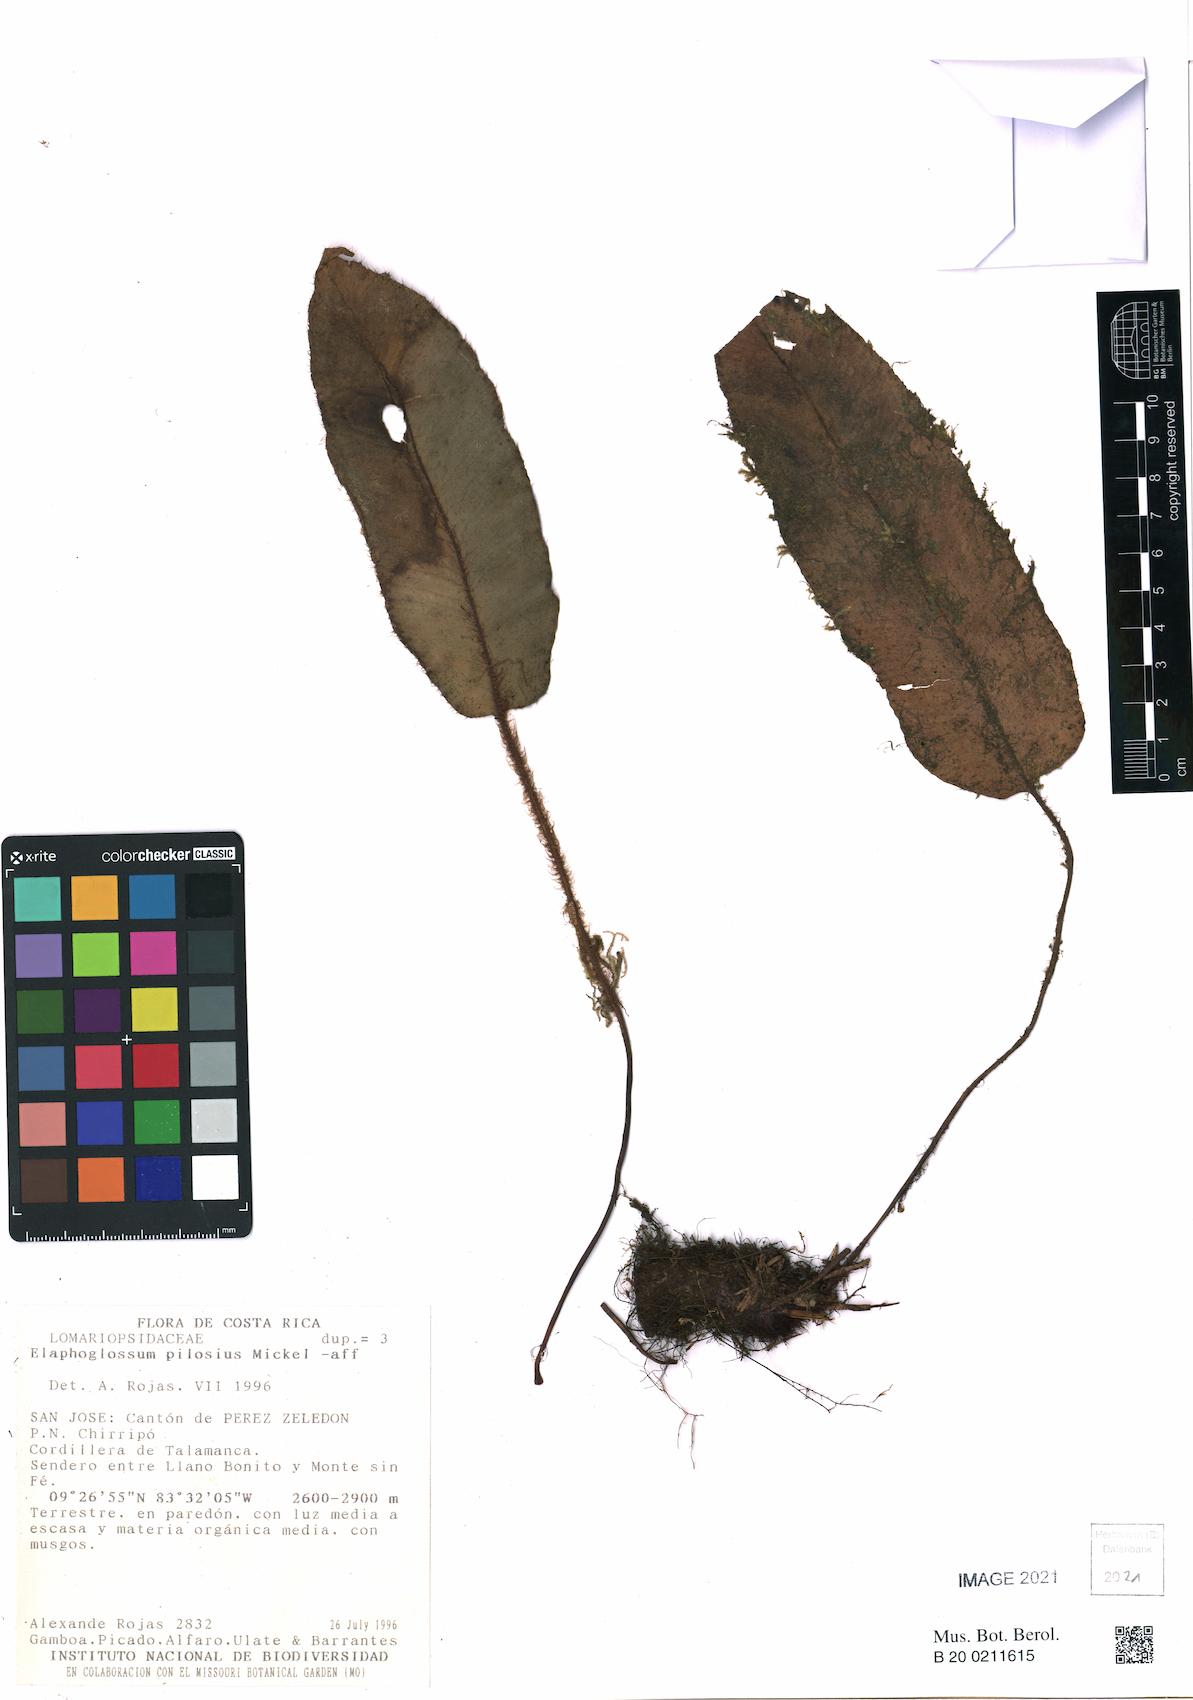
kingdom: Plantae
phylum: Tracheophyta
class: Polypodiopsida
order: Polypodiales
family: Dryopteridaceae
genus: Elaphoglossum
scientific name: Elaphoglossum pilosius
